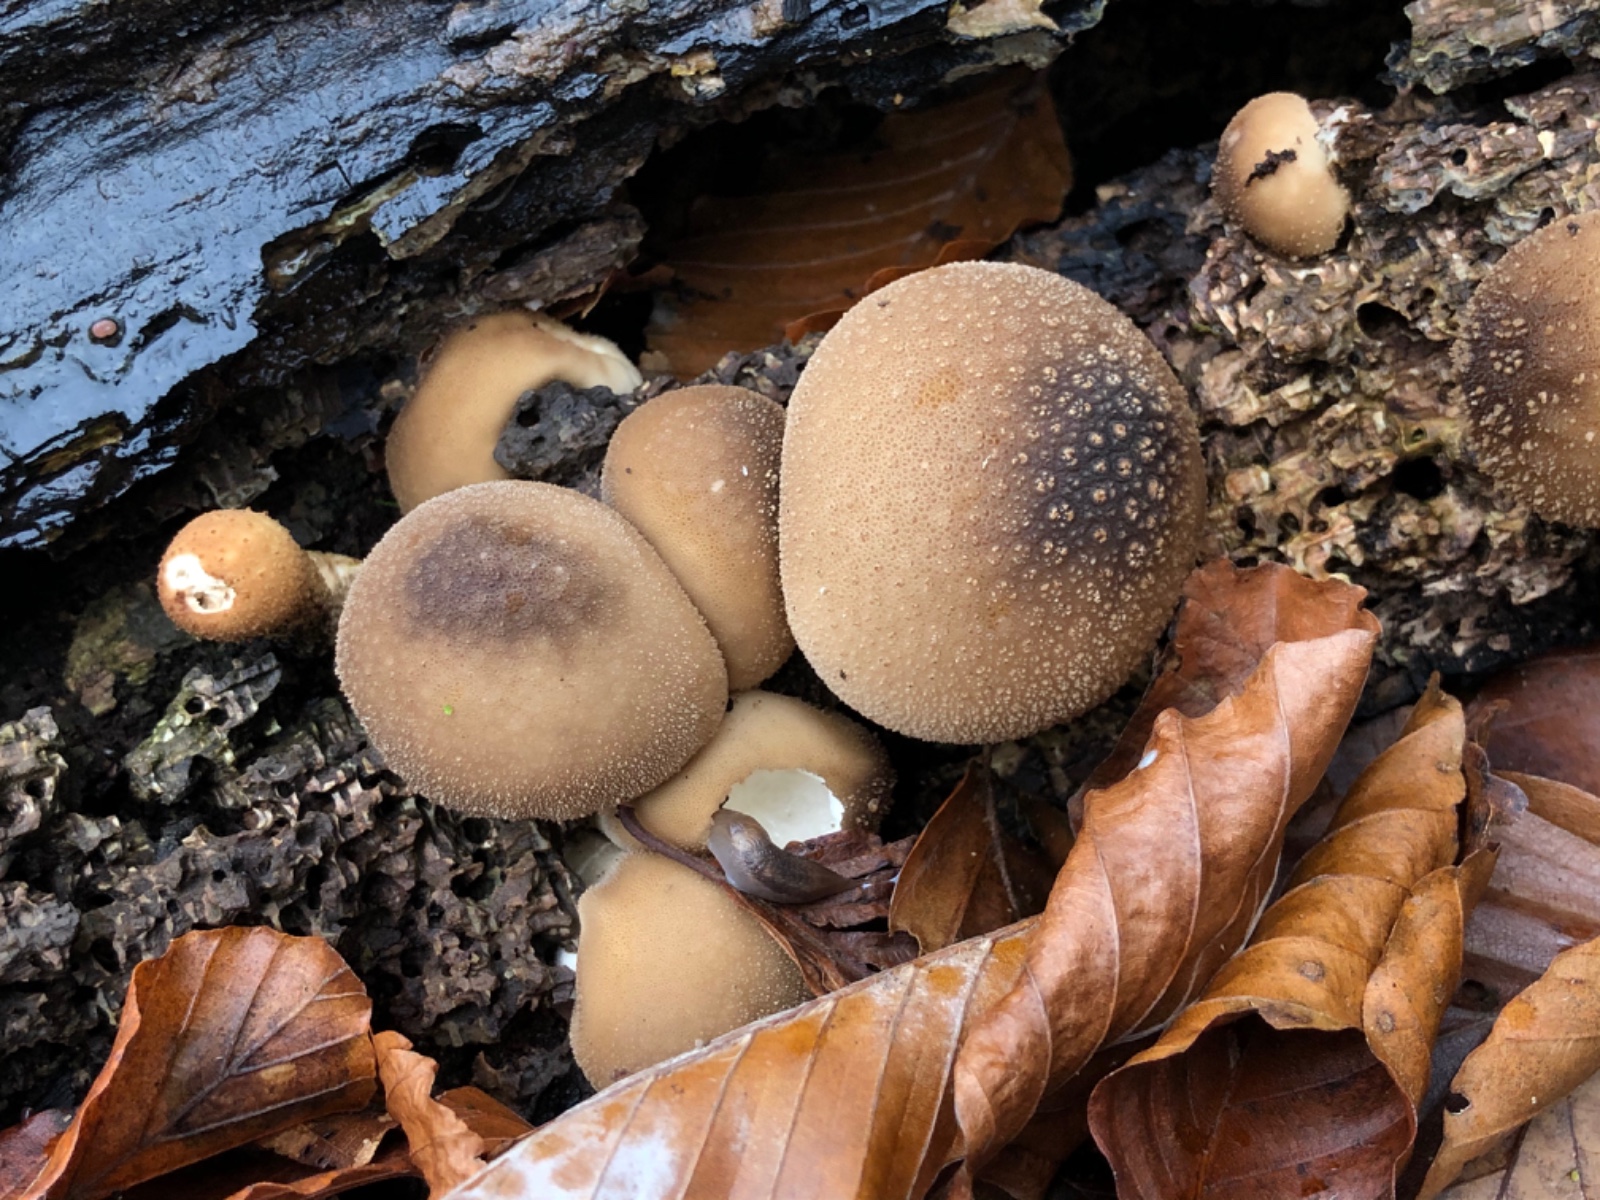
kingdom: Fungi
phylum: Basidiomycota
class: Agaricomycetes
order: Agaricales
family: Lycoperdaceae
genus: Apioperdon
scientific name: Apioperdon pyriforme
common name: pære-støvbold
